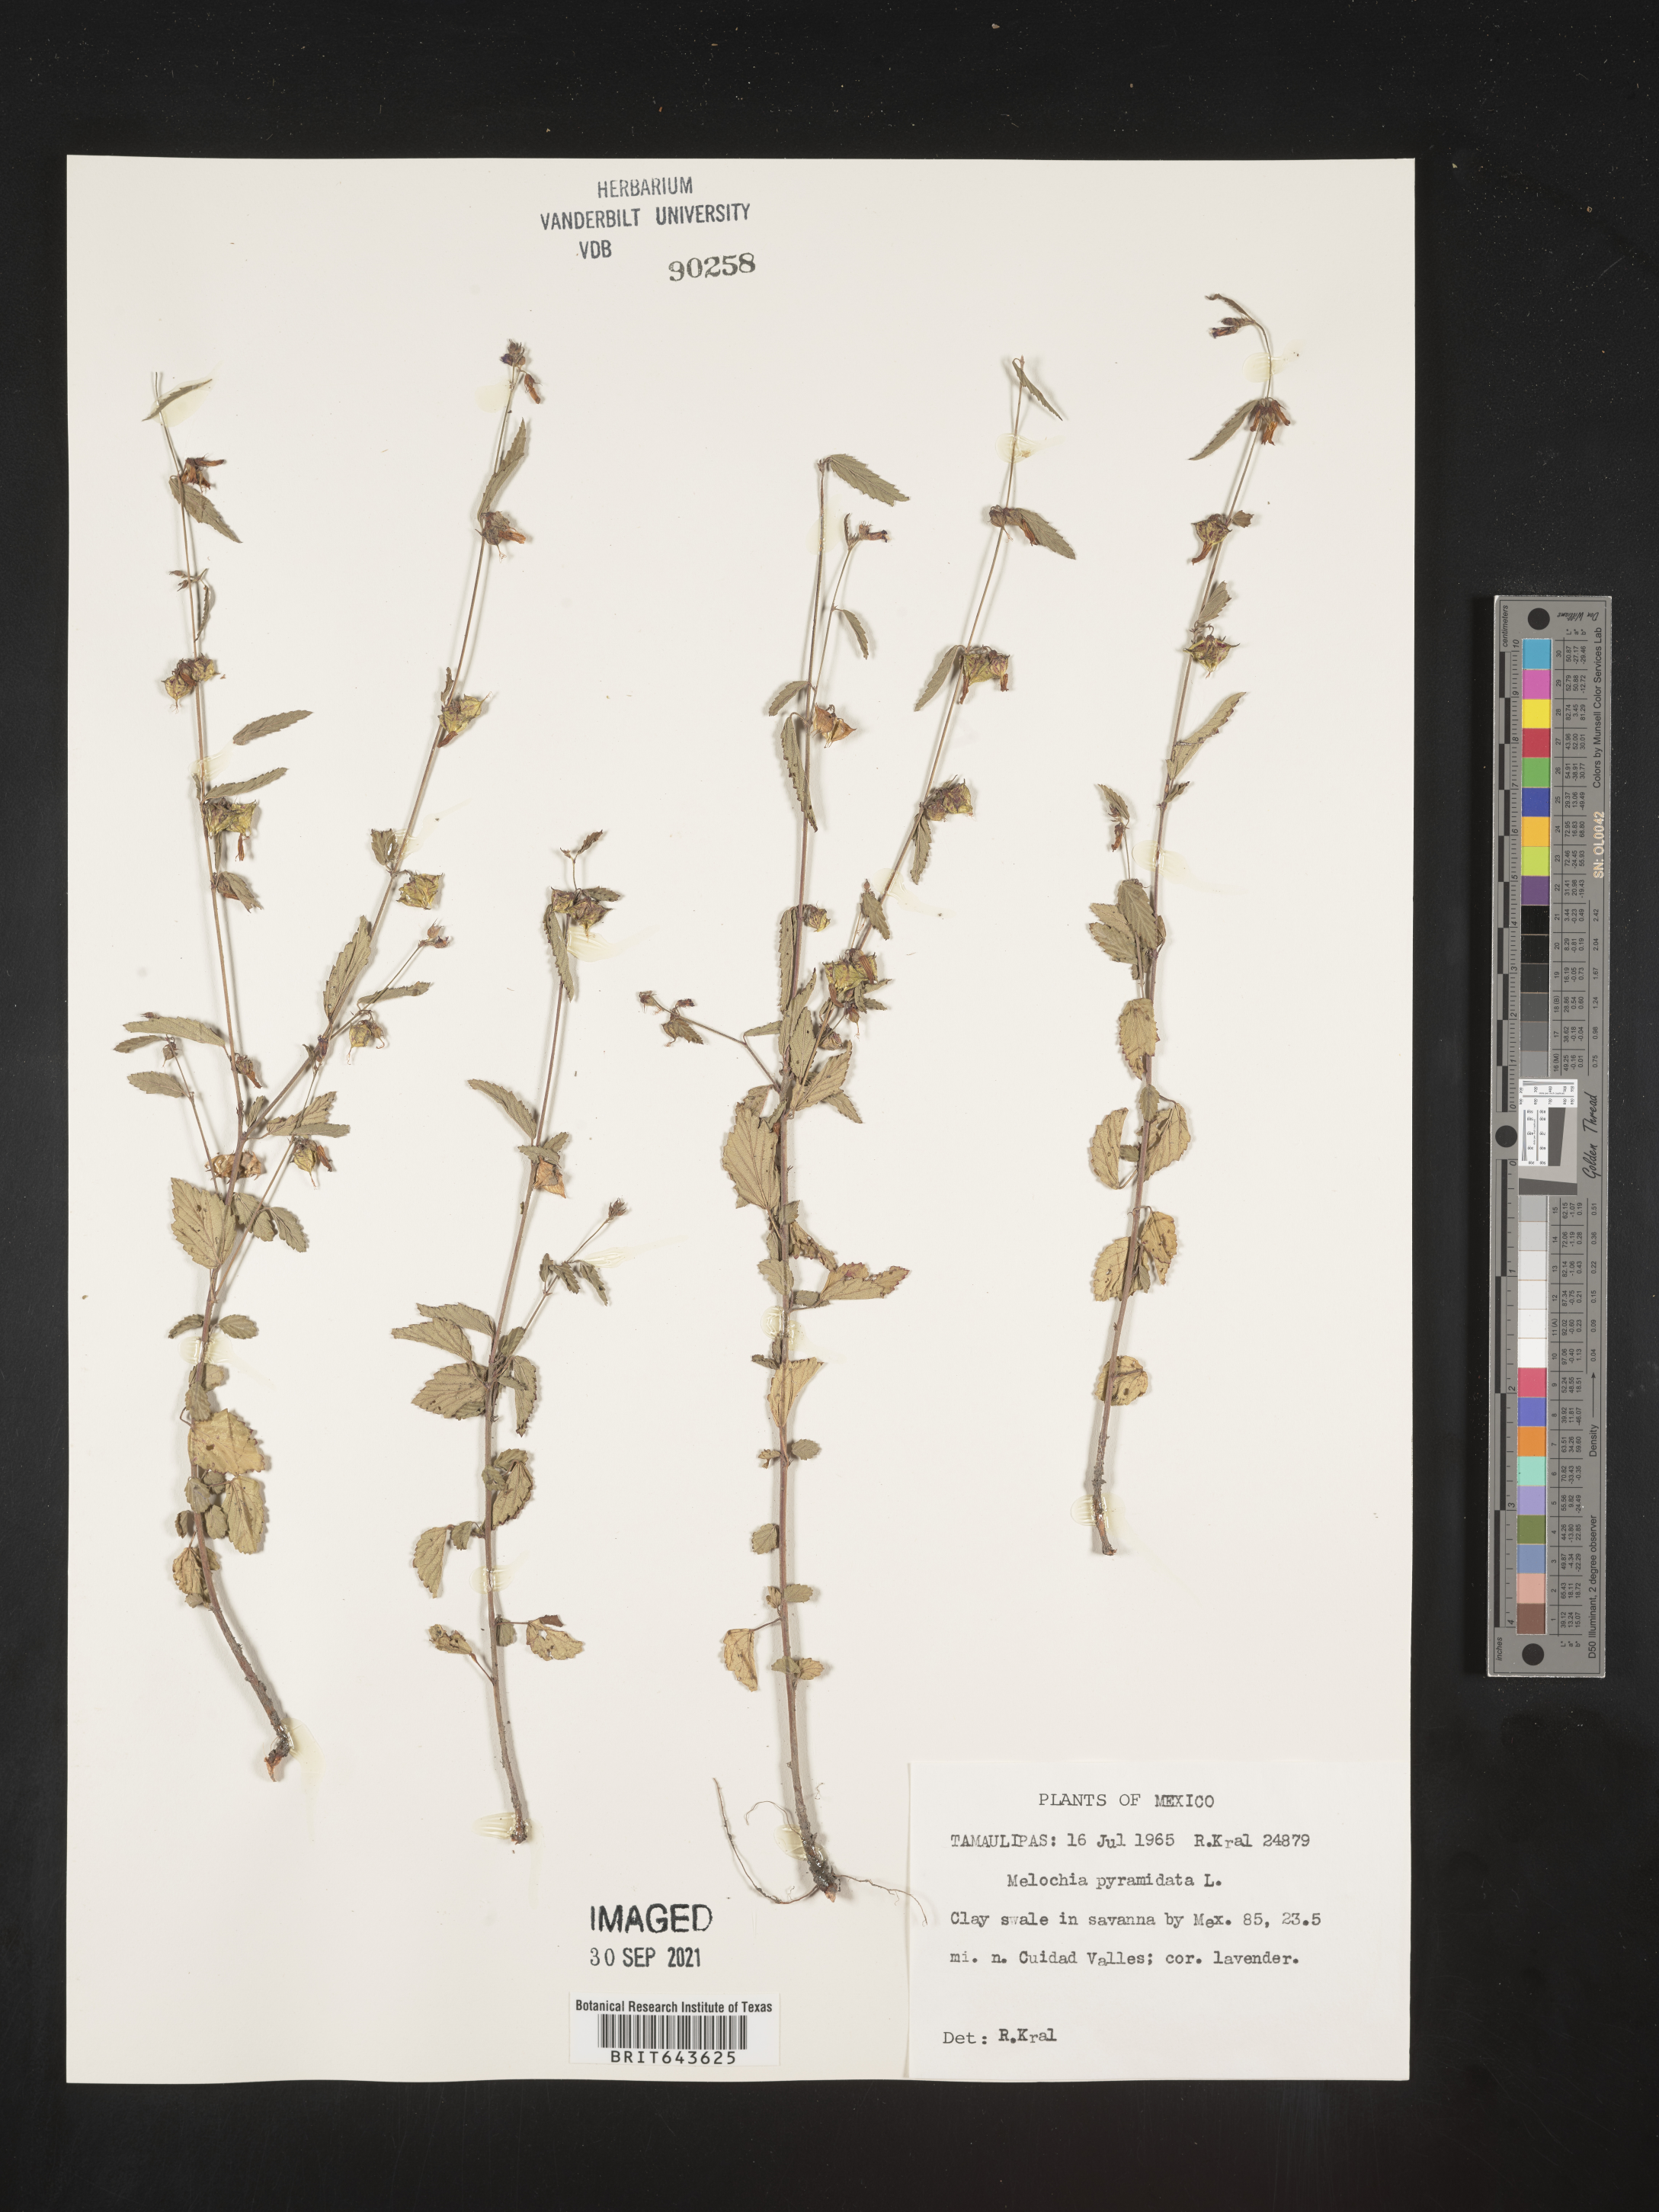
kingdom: Plantae
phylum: Tracheophyta
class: Magnoliopsida
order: Malvales
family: Malvaceae
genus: Melochia
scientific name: Melochia
